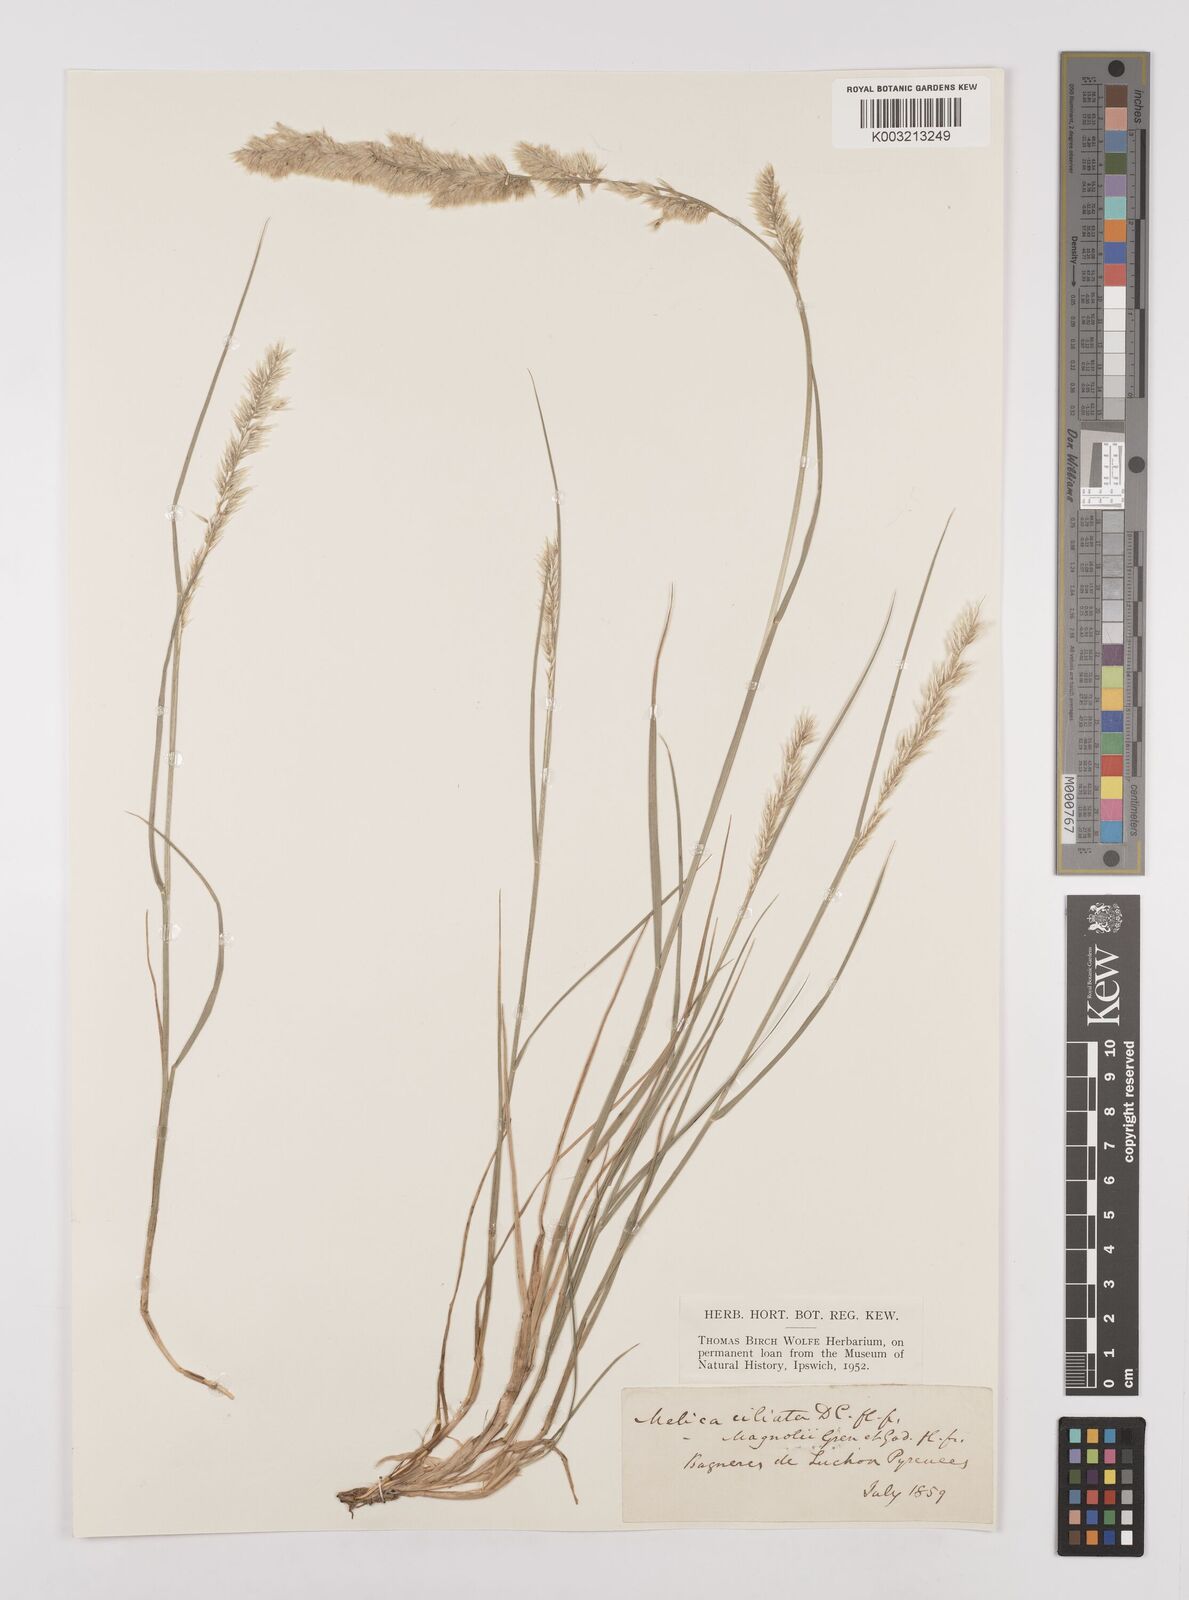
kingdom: Plantae
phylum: Tracheophyta
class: Liliopsida
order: Poales
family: Poaceae
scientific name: Poaceae
